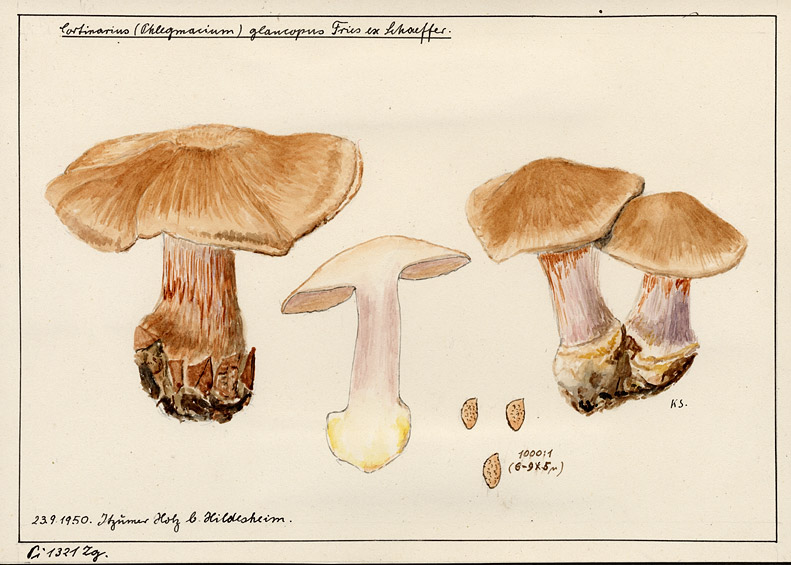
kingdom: Fungi
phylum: Basidiomycota
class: Agaricomycetes
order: Agaricales
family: Cortinariaceae
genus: Phlegmacium
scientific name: Phlegmacium glaucopus
